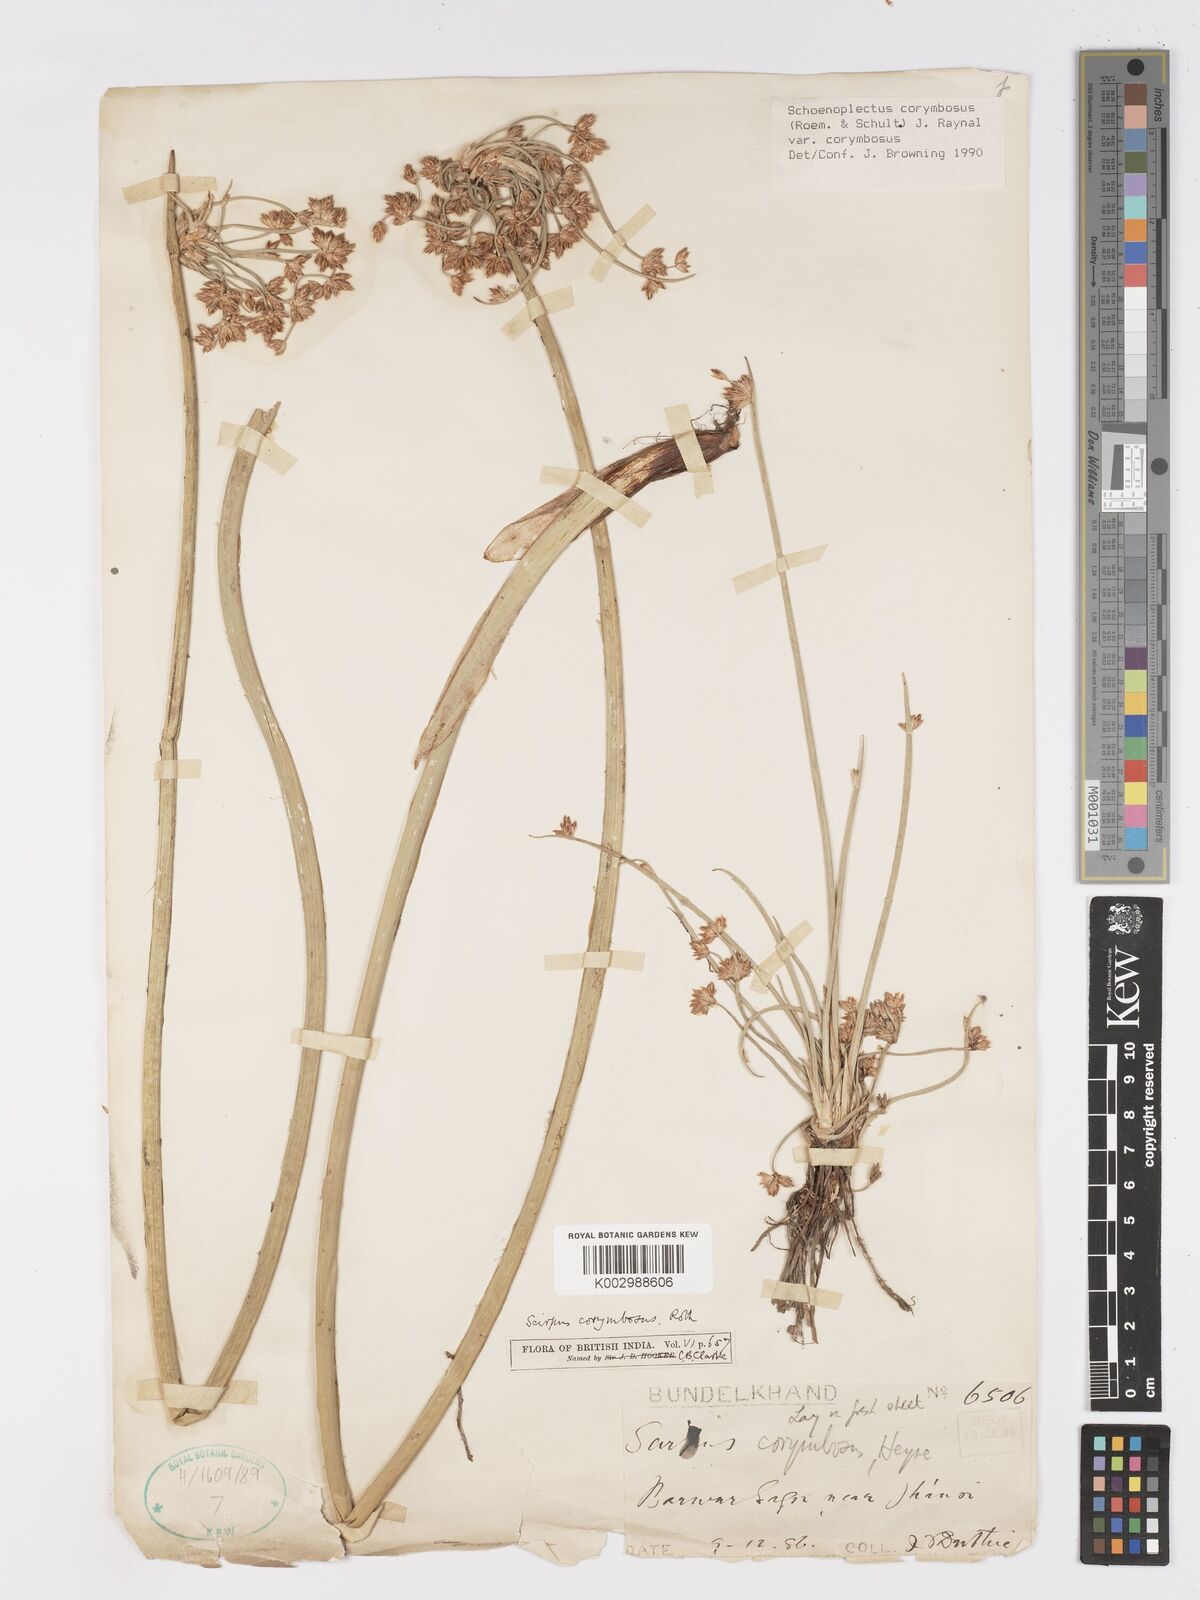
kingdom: Plantae
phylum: Tracheophyta
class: Liliopsida
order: Poales
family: Cyperaceae
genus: Schoenoplectiella
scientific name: Schoenoplectiella corymbosa
